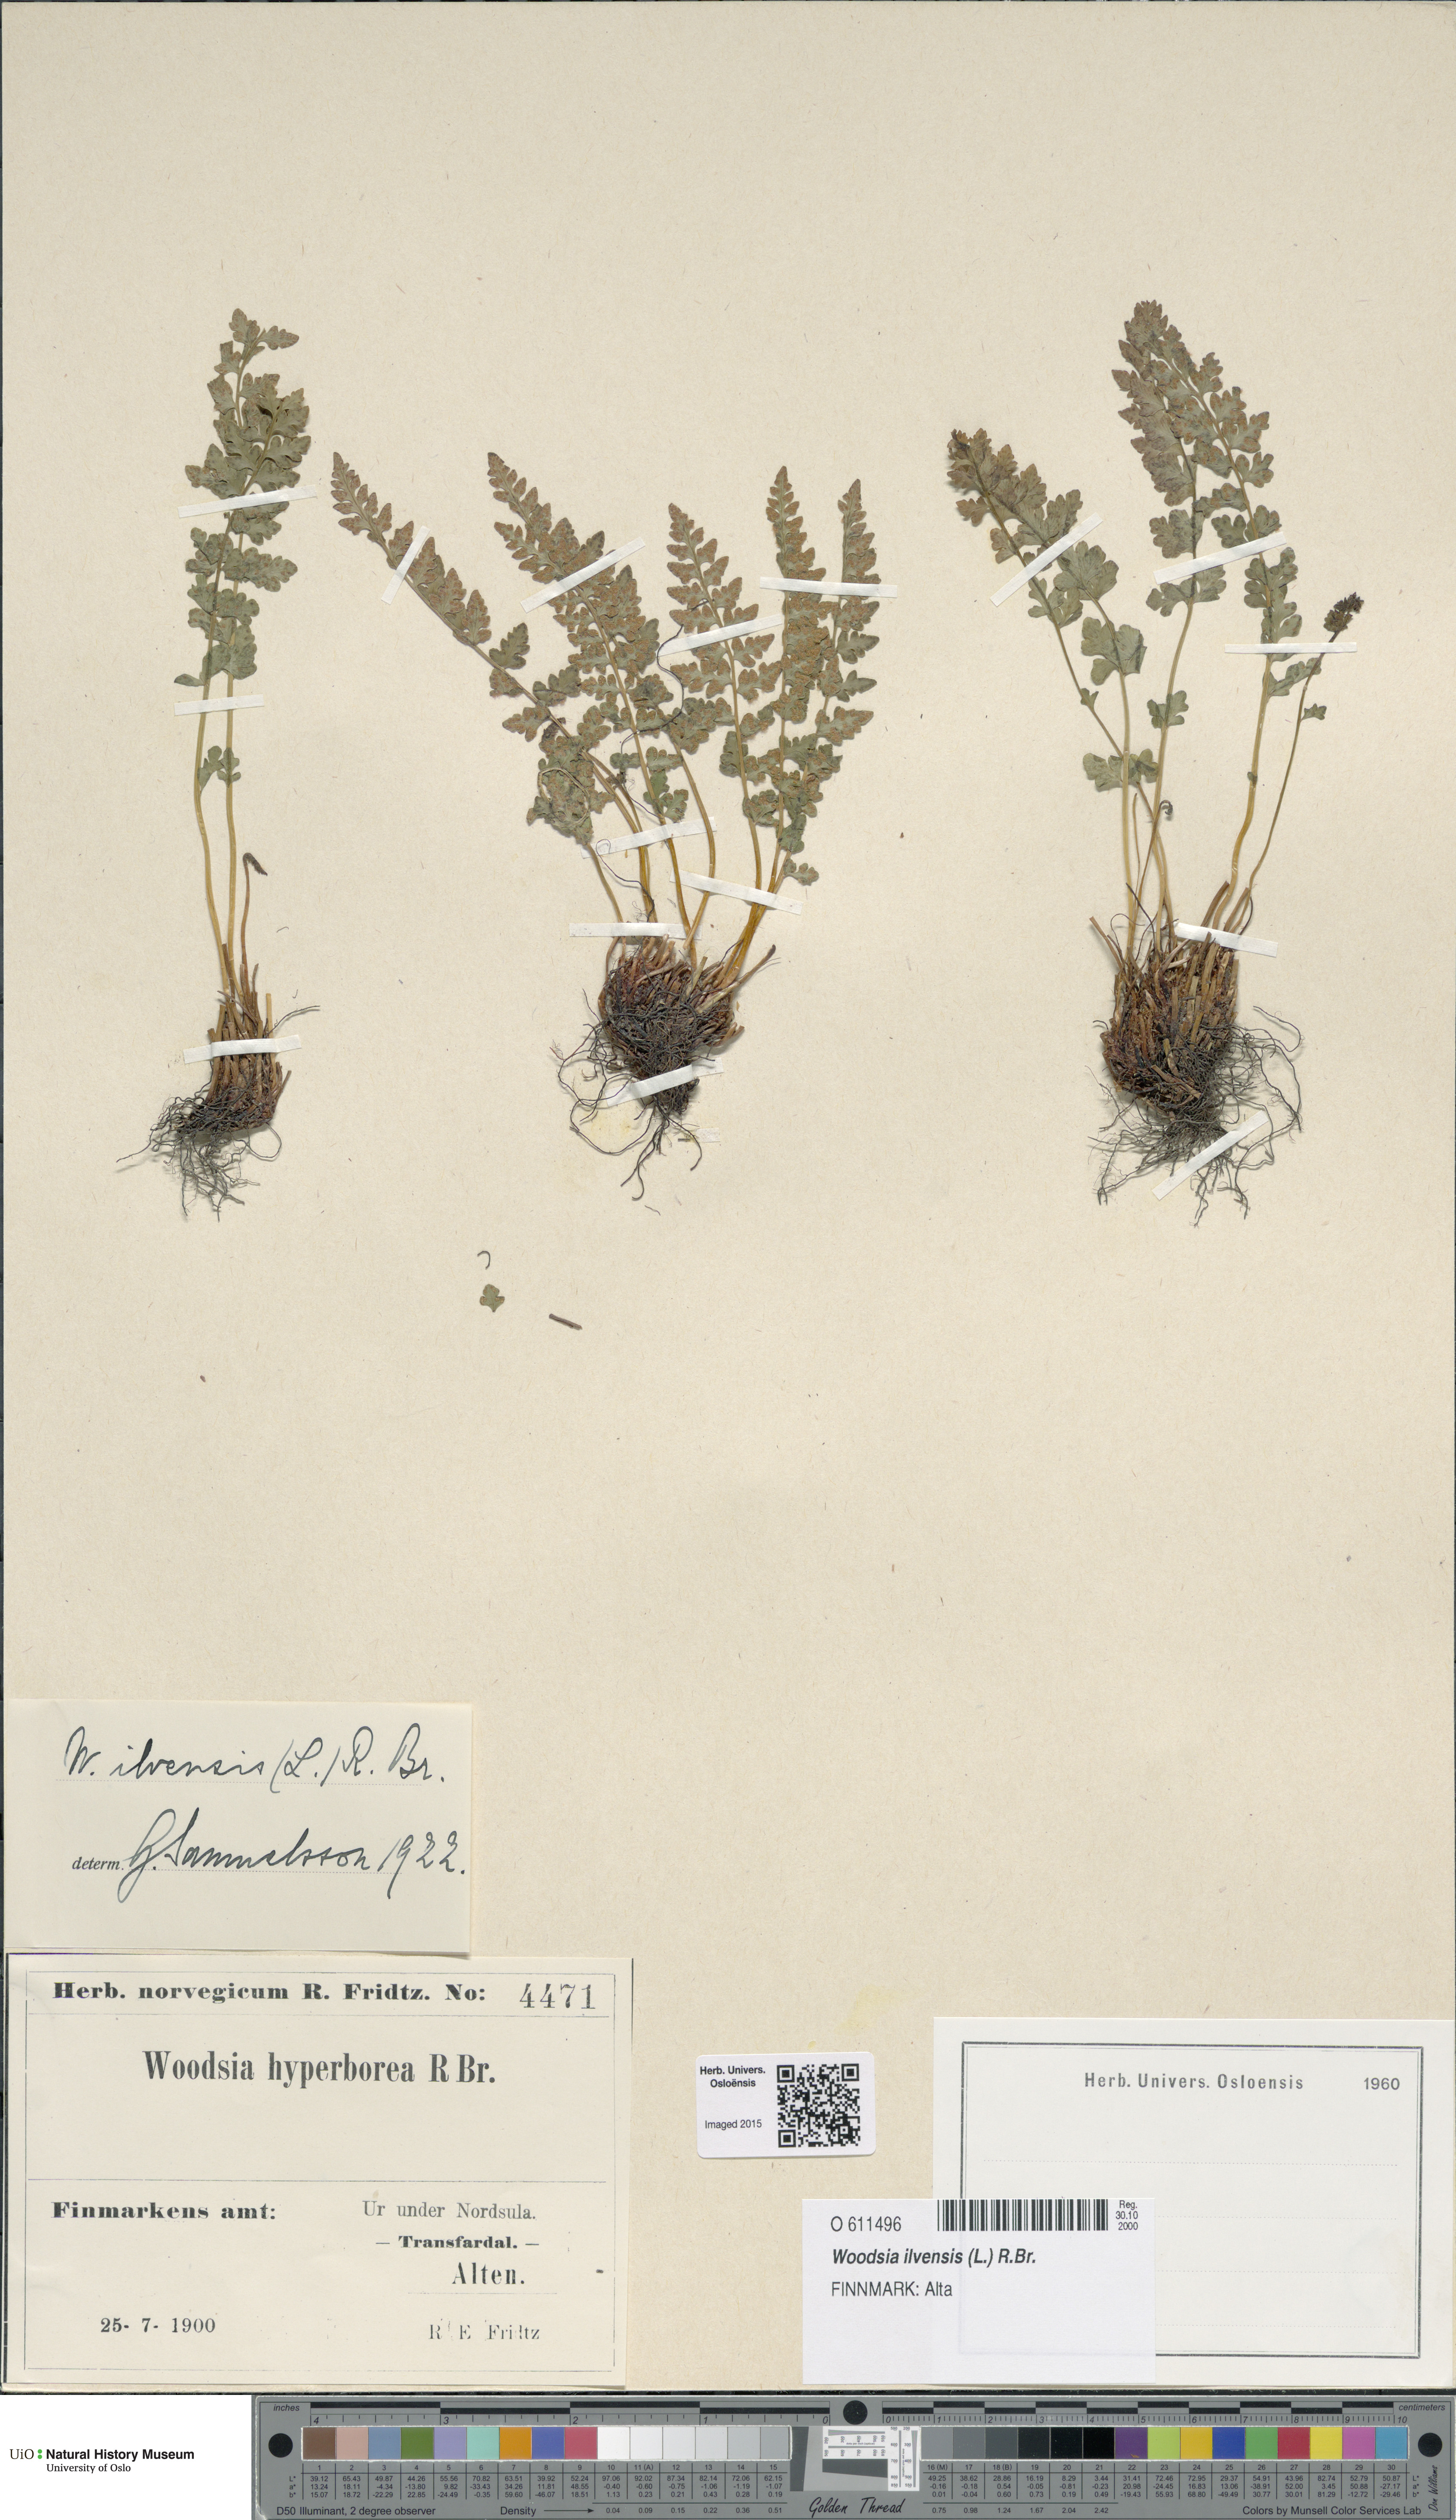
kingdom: Plantae
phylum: Tracheophyta
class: Polypodiopsida
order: Polypodiales
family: Woodsiaceae
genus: Woodsia
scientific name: Woodsia ilvensis
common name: Fragrant woodsia
